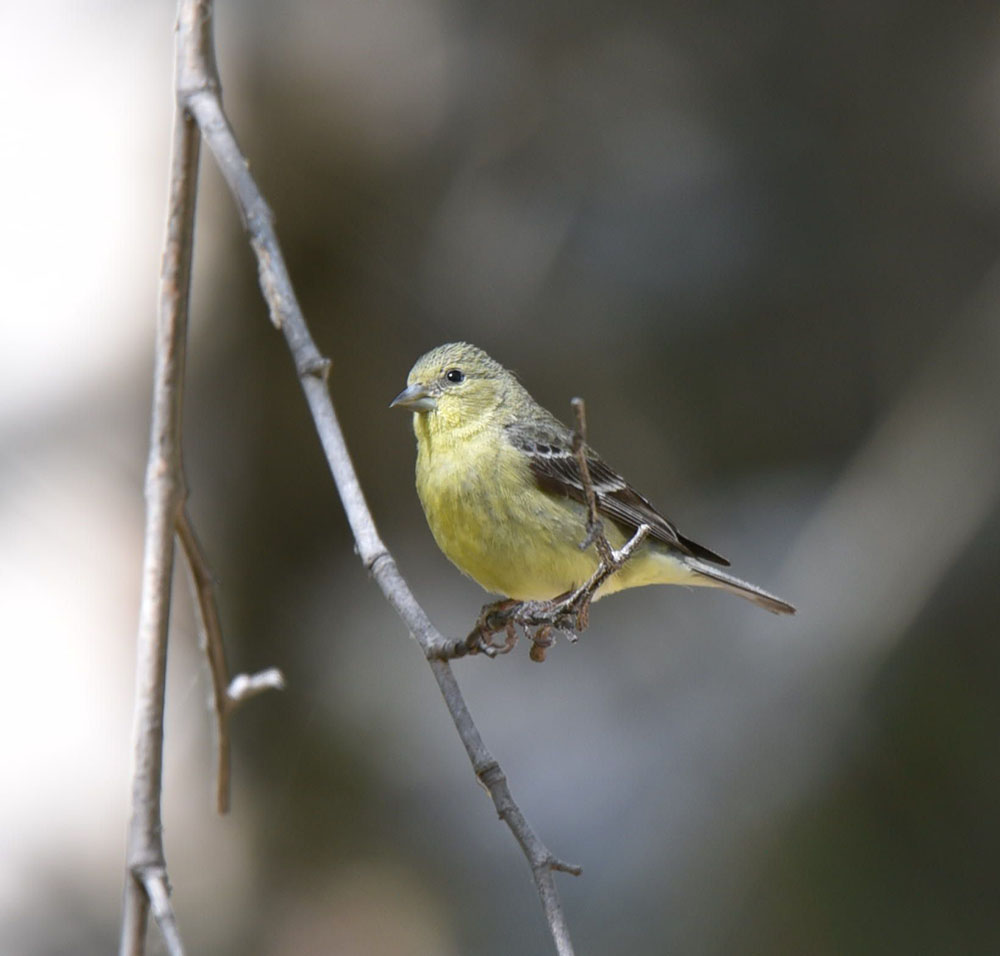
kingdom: Animalia
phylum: Chordata
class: Aves
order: Passeriformes
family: Fringillidae
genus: Spinus
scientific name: Spinus tristis
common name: American goldfinch
